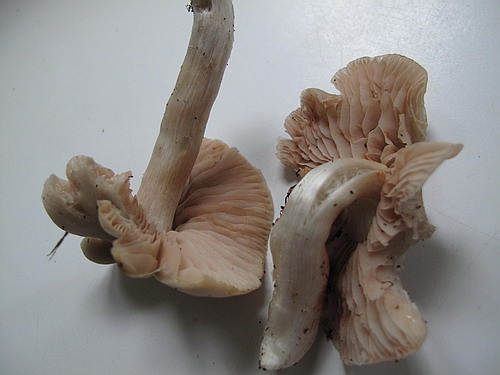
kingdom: Fungi
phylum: Basidiomycota
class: Agaricomycetes
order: Agaricales
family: Entolomataceae
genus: Entoloma
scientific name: Entoloma rhodopolium
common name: skov-rødblad
